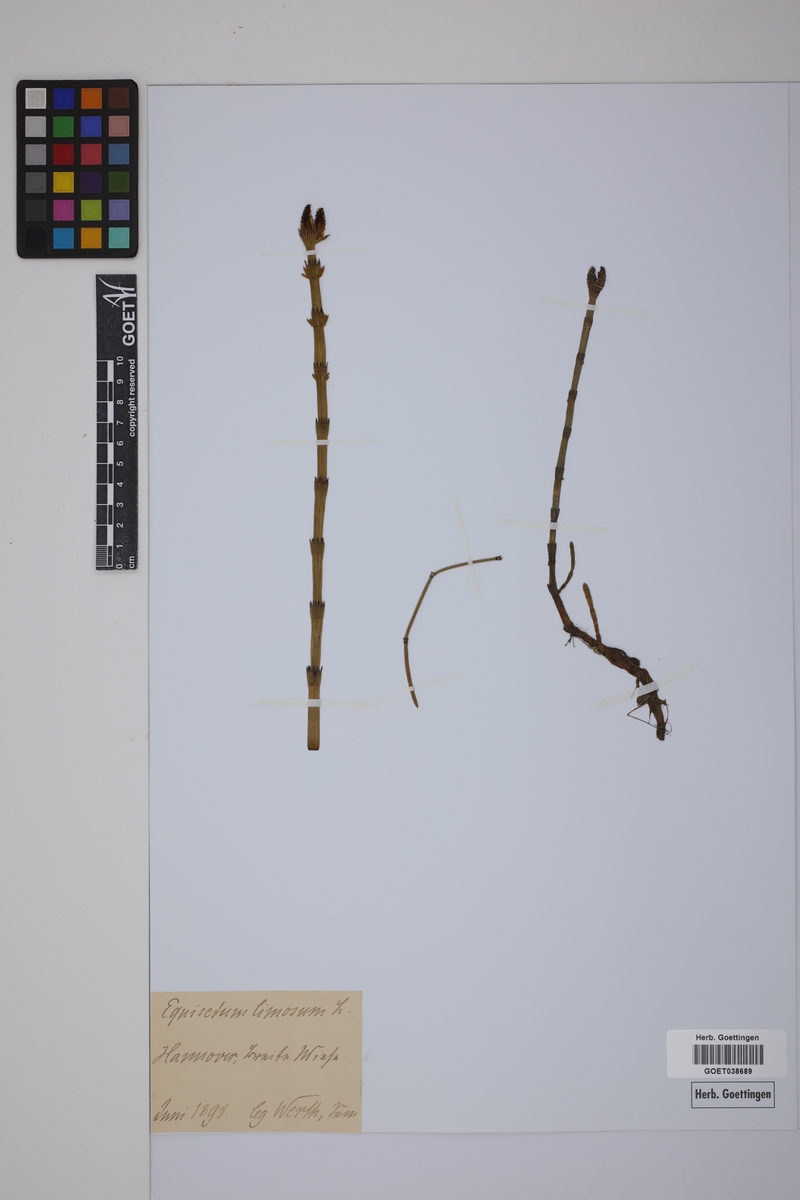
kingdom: Plantae
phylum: Tracheophyta
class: Polypodiopsida
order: Equisetales
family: Equisetaceae
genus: Equisetum
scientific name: Equisetum fluviatile
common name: Water horsetail
